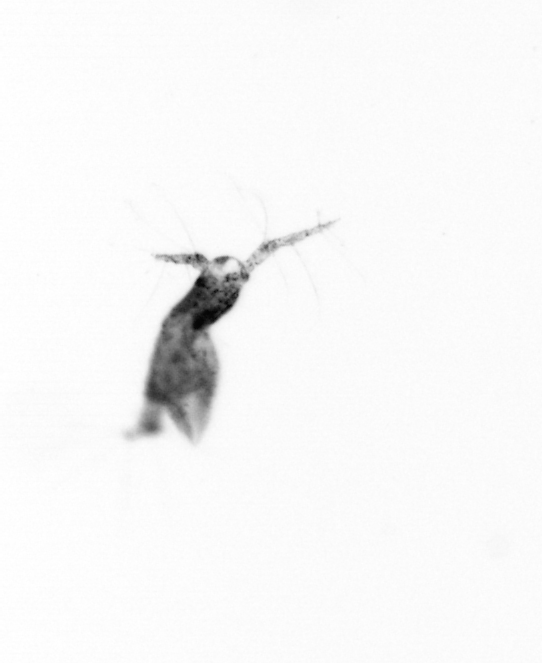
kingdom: Animalia
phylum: Arthropoda
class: Copepoda
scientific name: Copepoda
